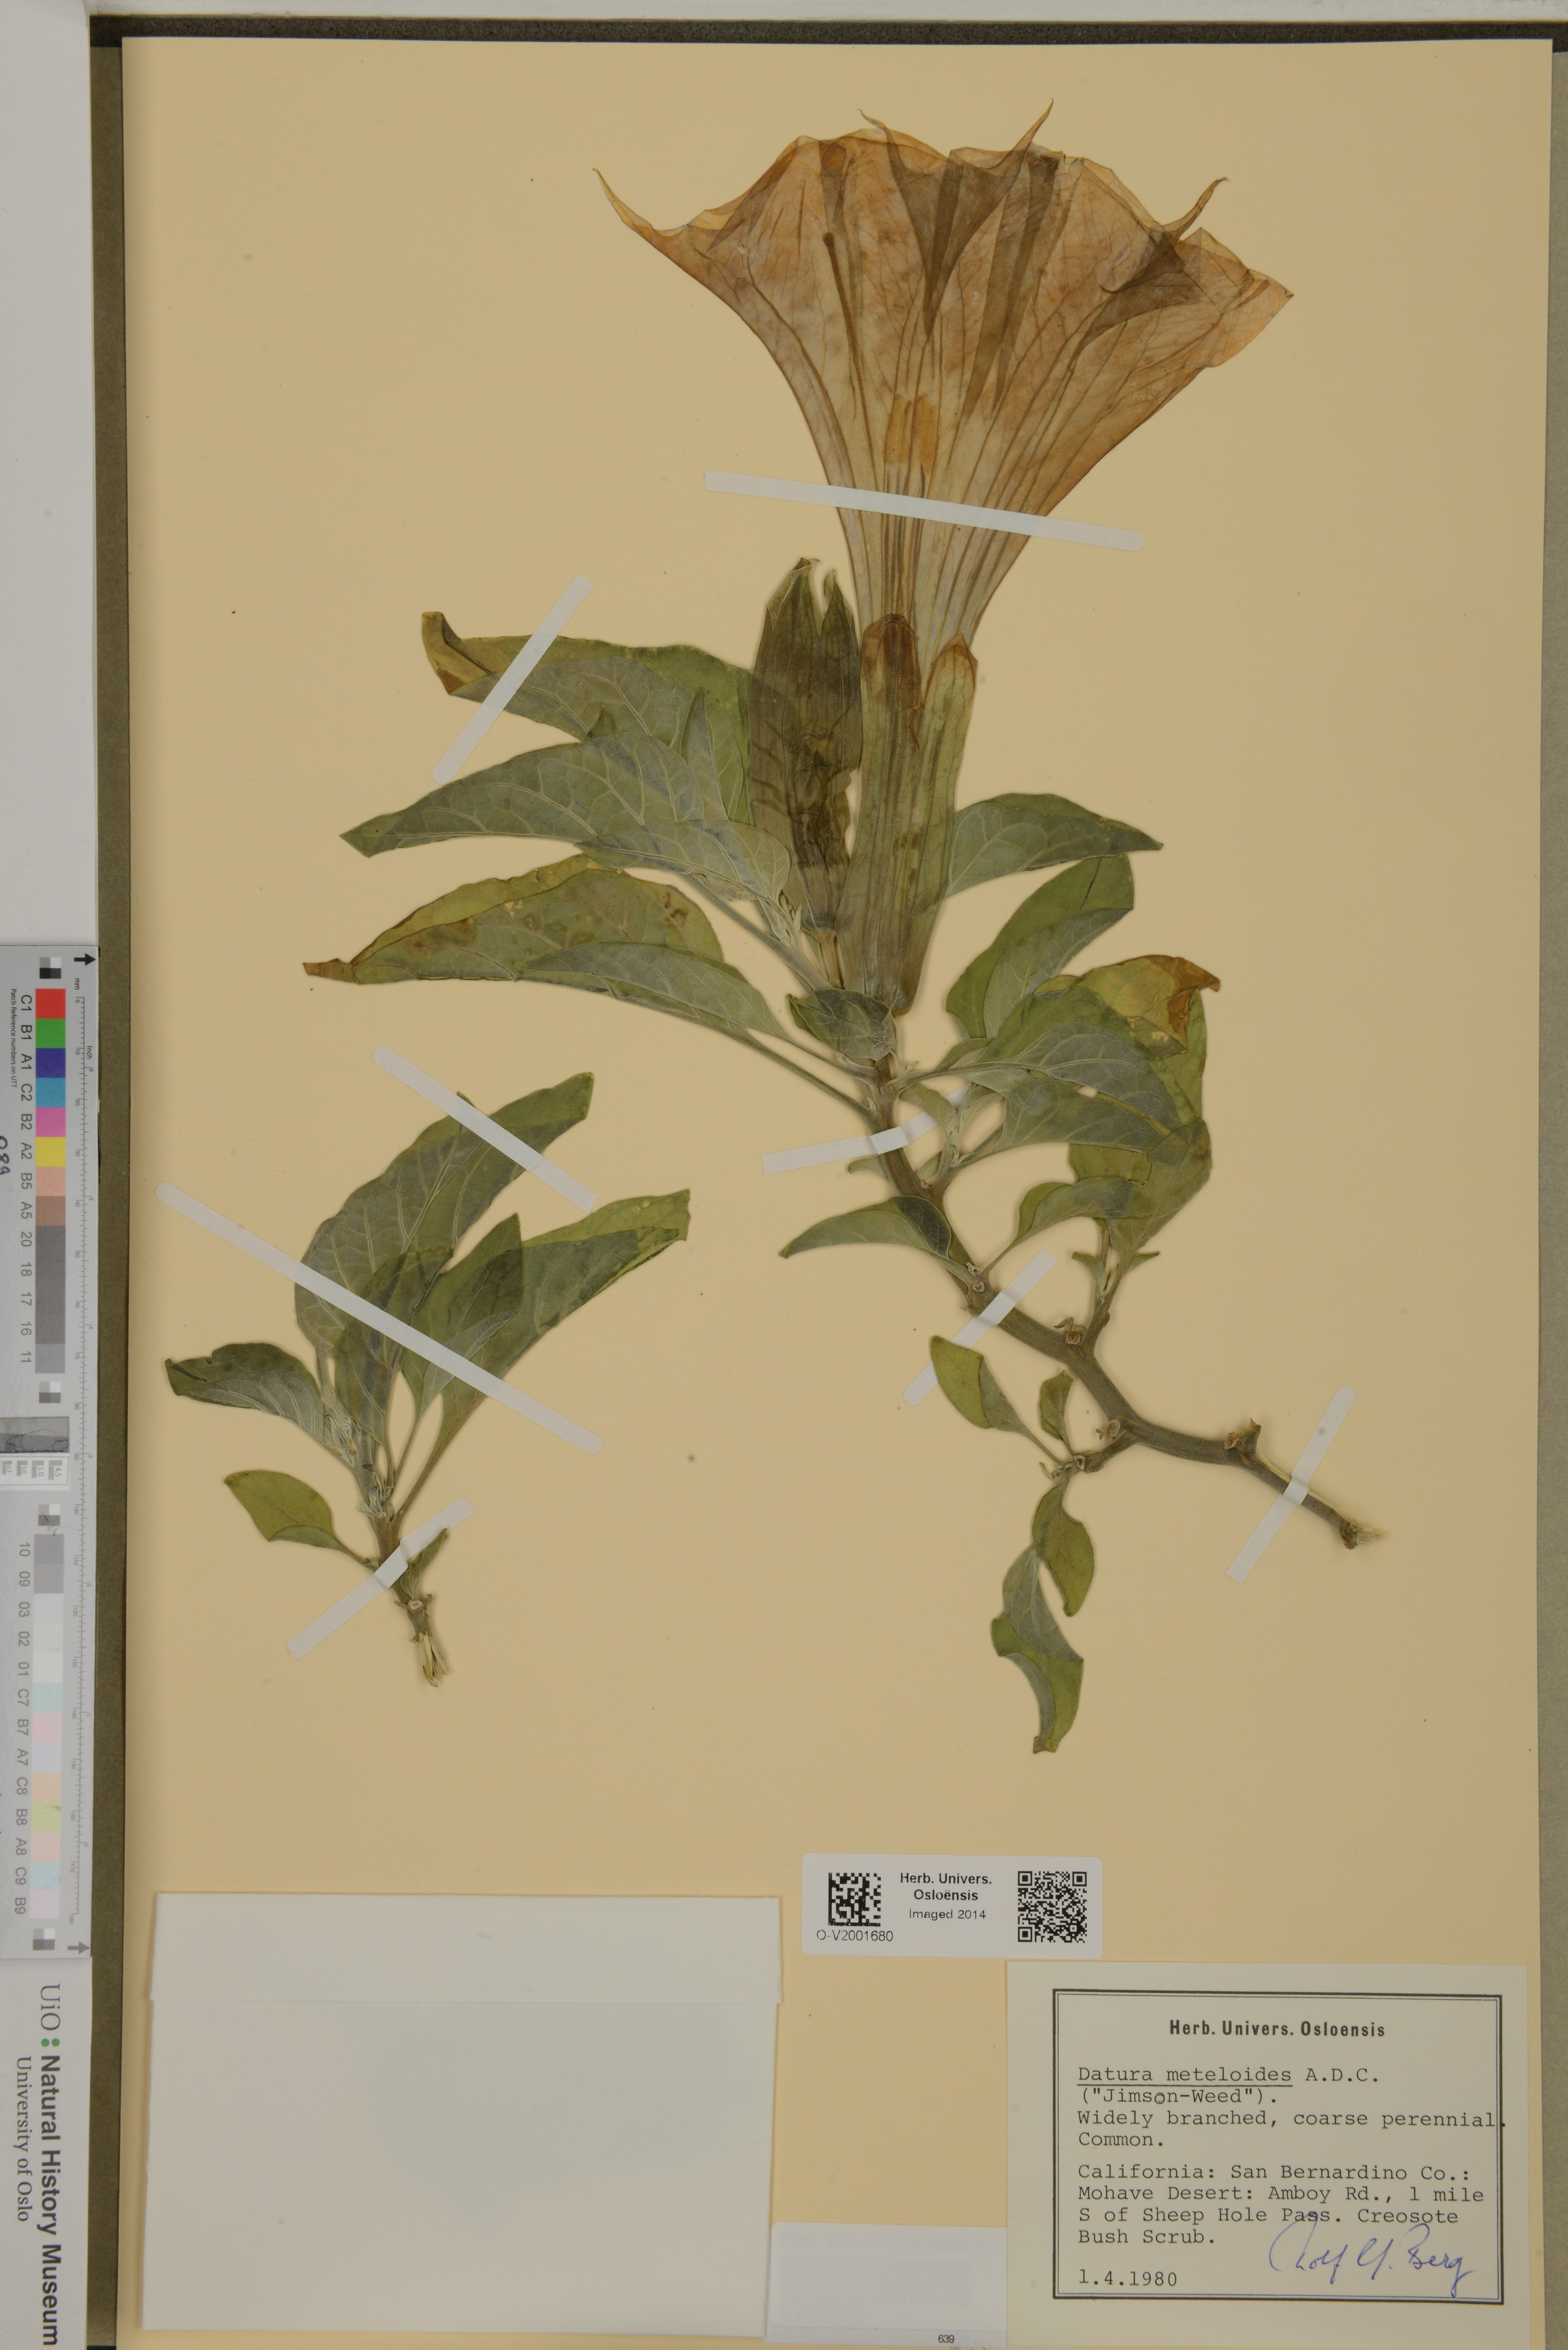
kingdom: Plantae
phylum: Tracheophyta
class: Magnoliopsida
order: Solanales
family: Solanaceae
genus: Datura
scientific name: Datura innoxia
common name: Downy thorn-apple
